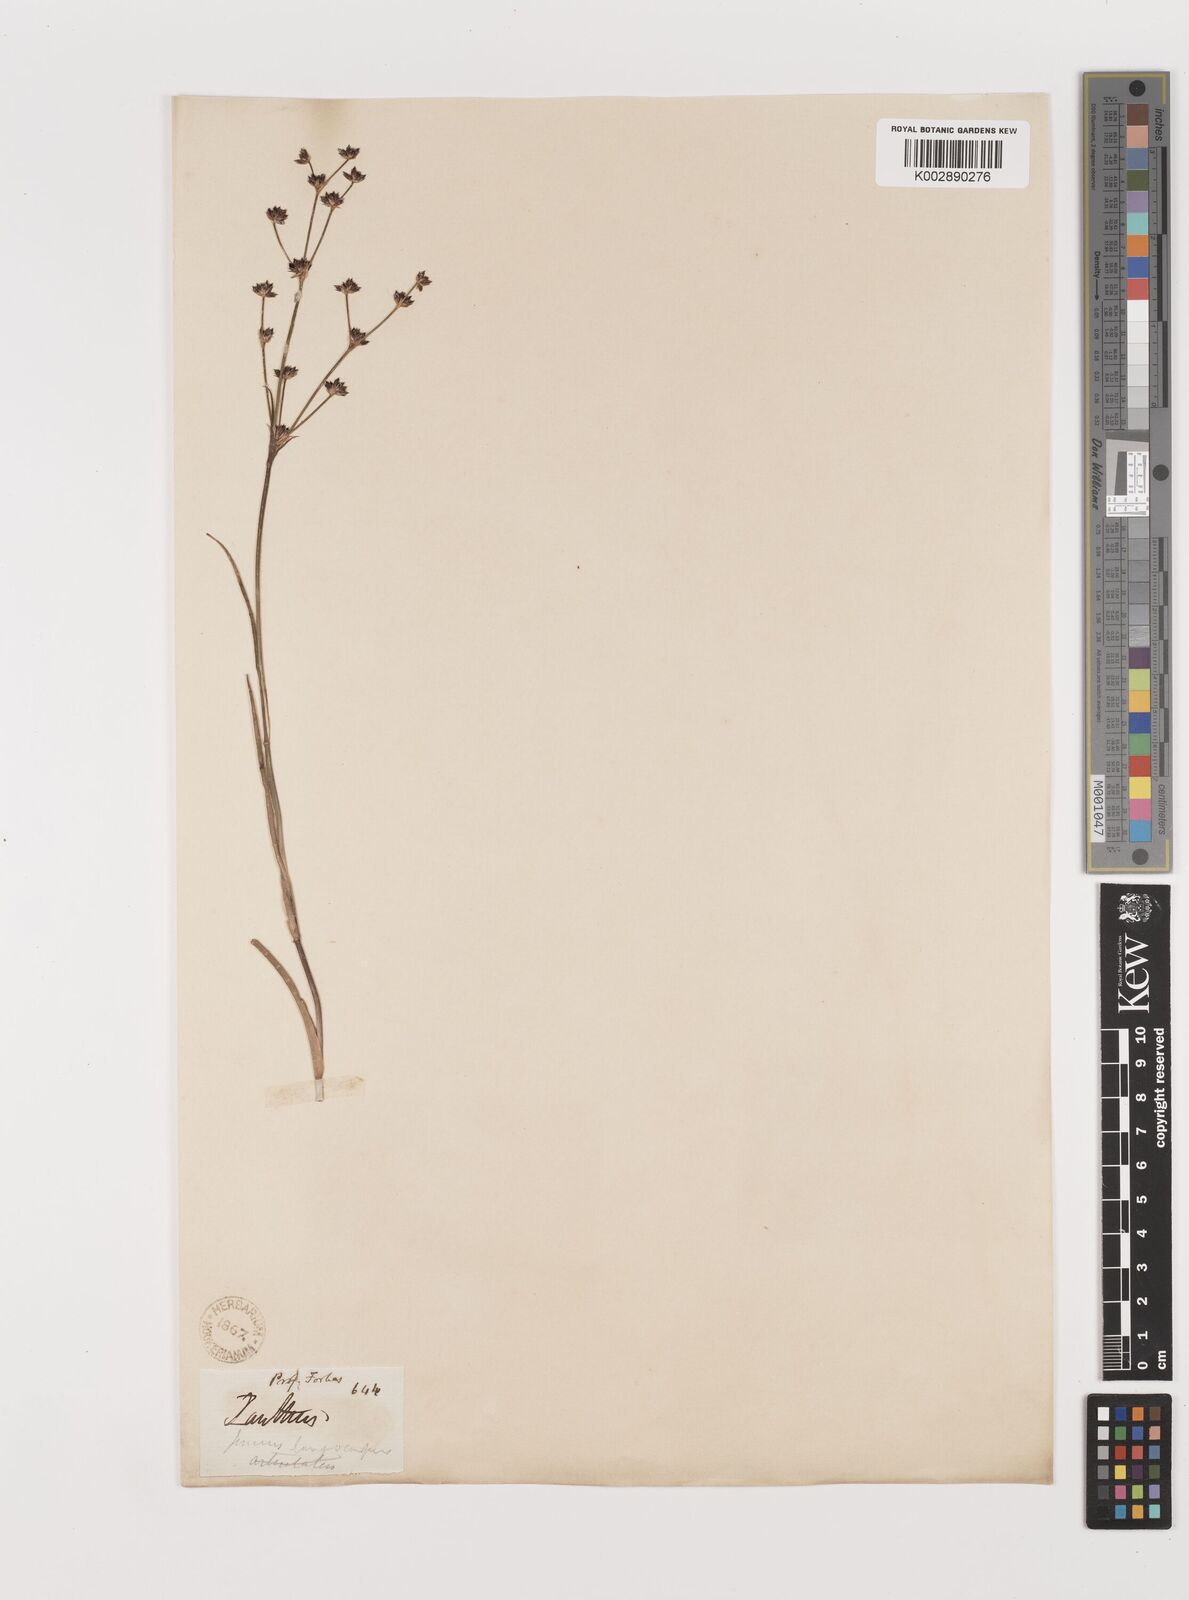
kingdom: Plantae
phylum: Tracheophyta
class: Liliopsida
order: Poales
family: Juncaceae
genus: Juncus
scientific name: Juncus articulatus
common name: Jointed rush
